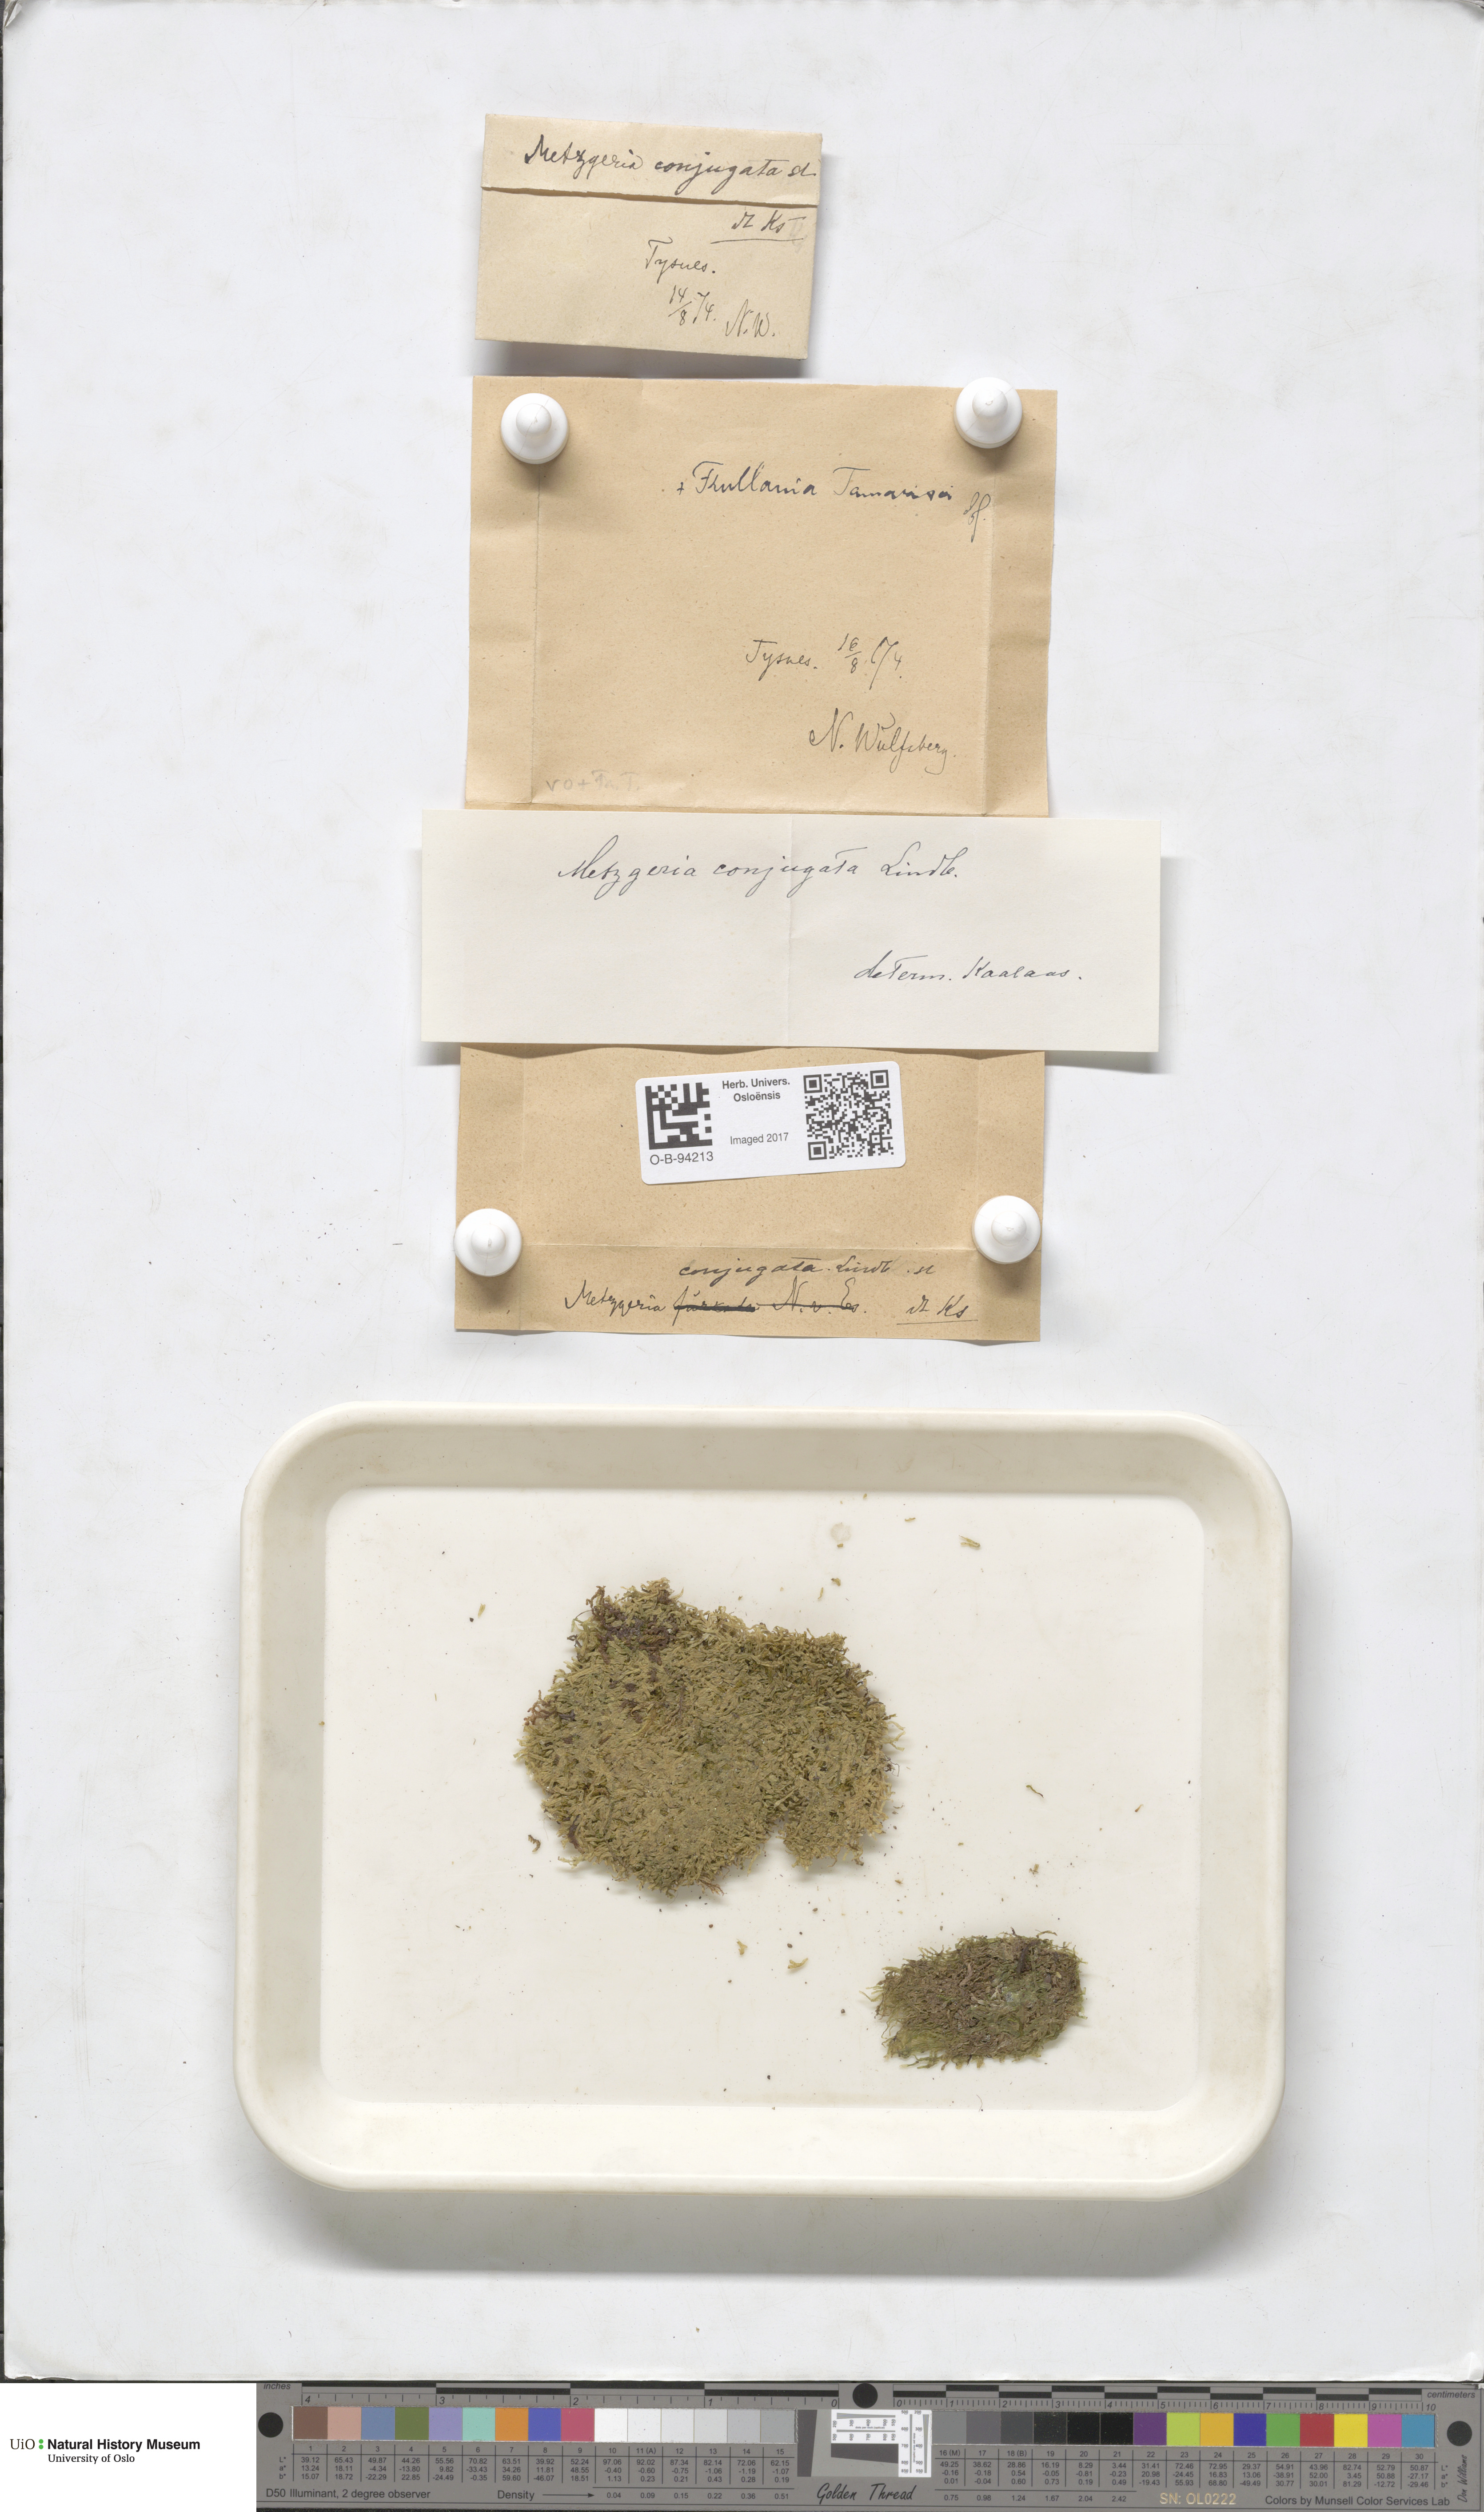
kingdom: Plantae
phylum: Marchantiophyta
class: Jungermanniopsida
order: Metzgeriales
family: Metzgeriaceae
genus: Metzgeria
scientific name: Metzgeria conjugata
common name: Rock veilwort
